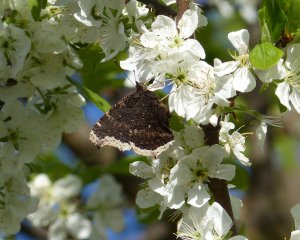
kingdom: Animalia
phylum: Arthropoda
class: Insecta
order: Lepidoptera
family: Nymphalidae
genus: Nymphalis
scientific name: Nymphalis antiopa
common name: Mourning Cloak
